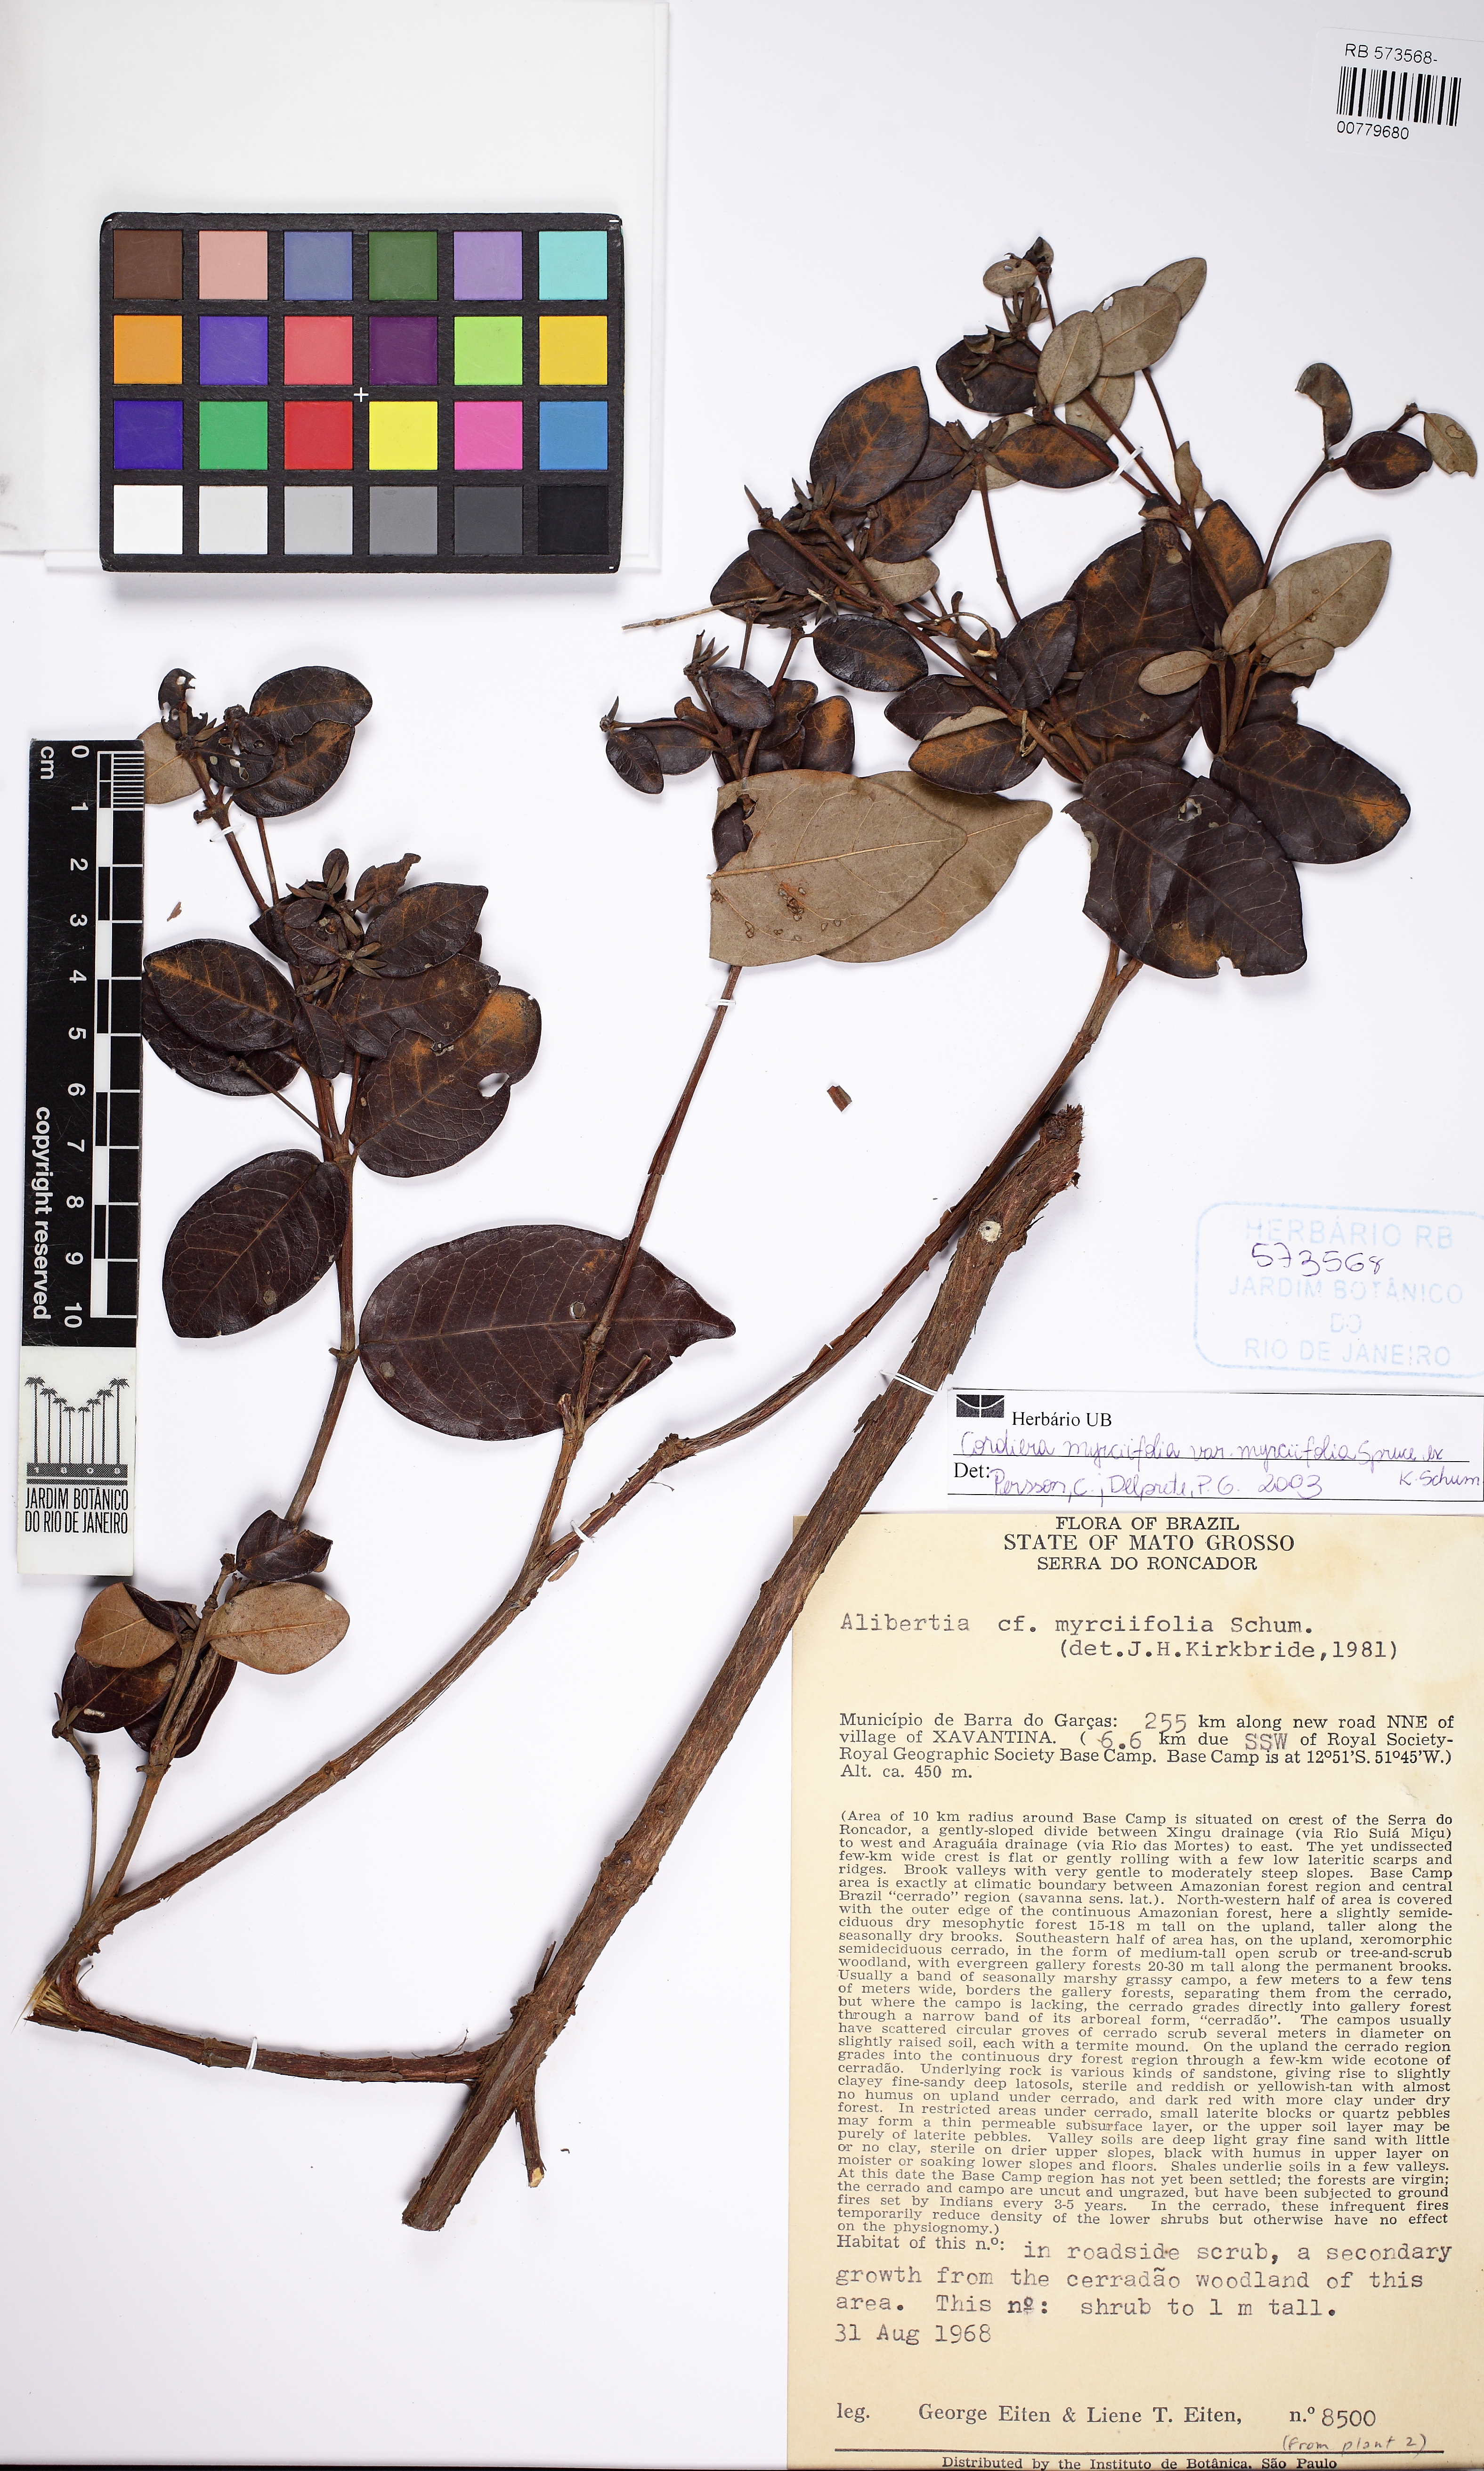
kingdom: Plantae
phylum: Tracheophyta
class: Magnoliopsida
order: Gentianales
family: Rubiaceae
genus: Cordiera
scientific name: Cordiera myrciifolia
